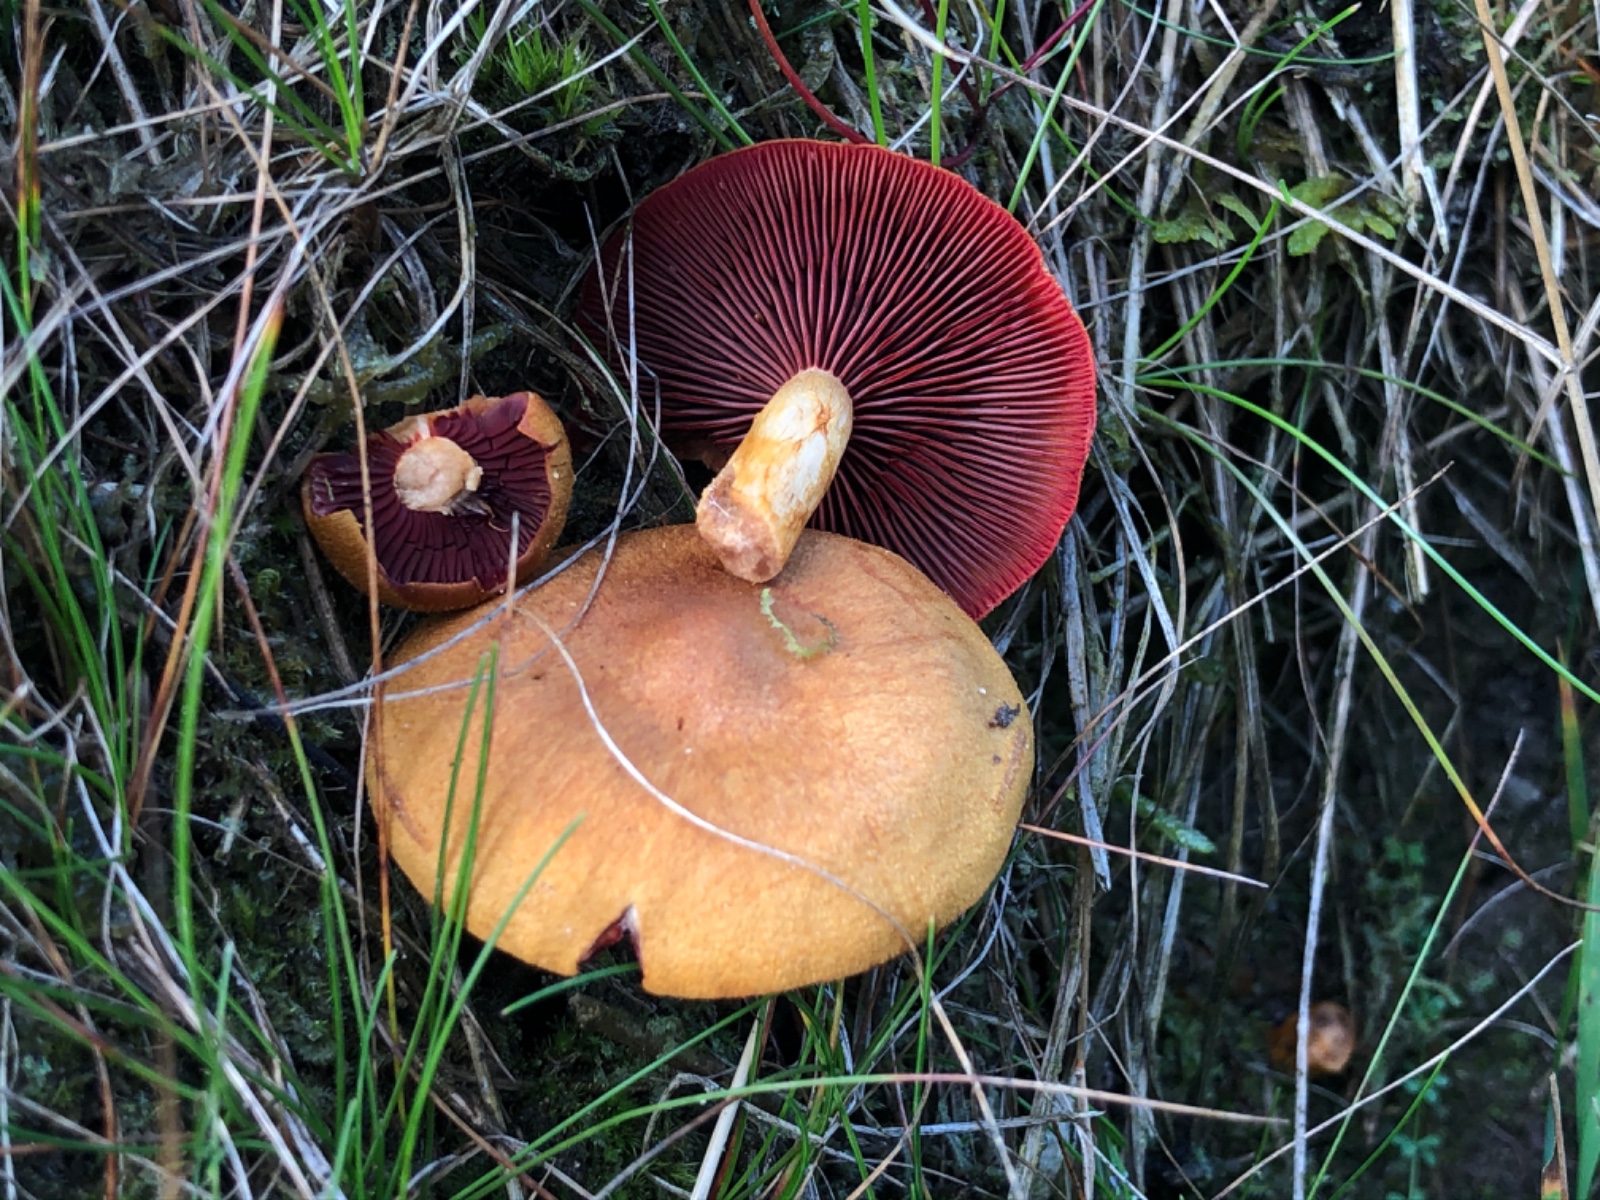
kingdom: Fungi
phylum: Basidiomycota
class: Agaricomycetes
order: Agaricales
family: Cortinariaceae
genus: Cortinarius
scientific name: Cortinarius
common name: cinnoberbladet slørhat
